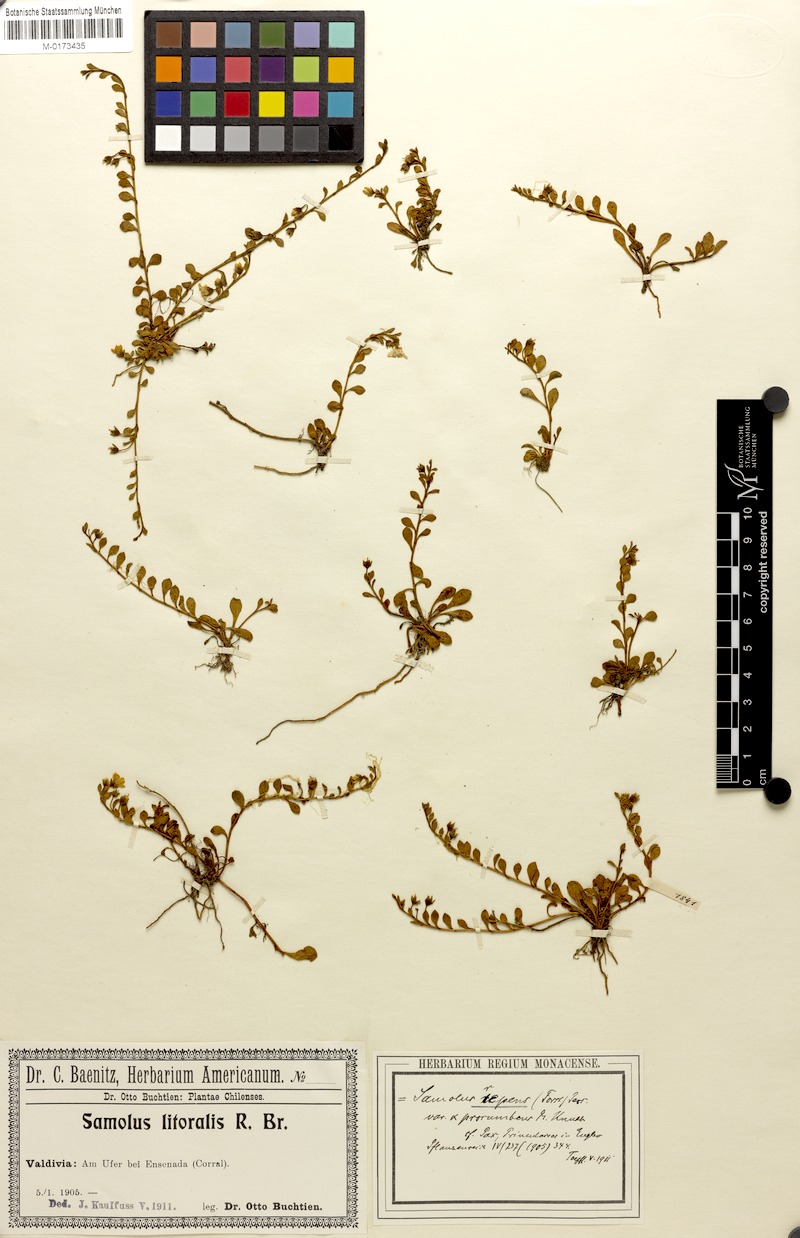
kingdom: Plantae
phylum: Tracheophyta
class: Magnoliopsida
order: Ericales
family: Primulaceae
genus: Samolus
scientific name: Samolus repens
